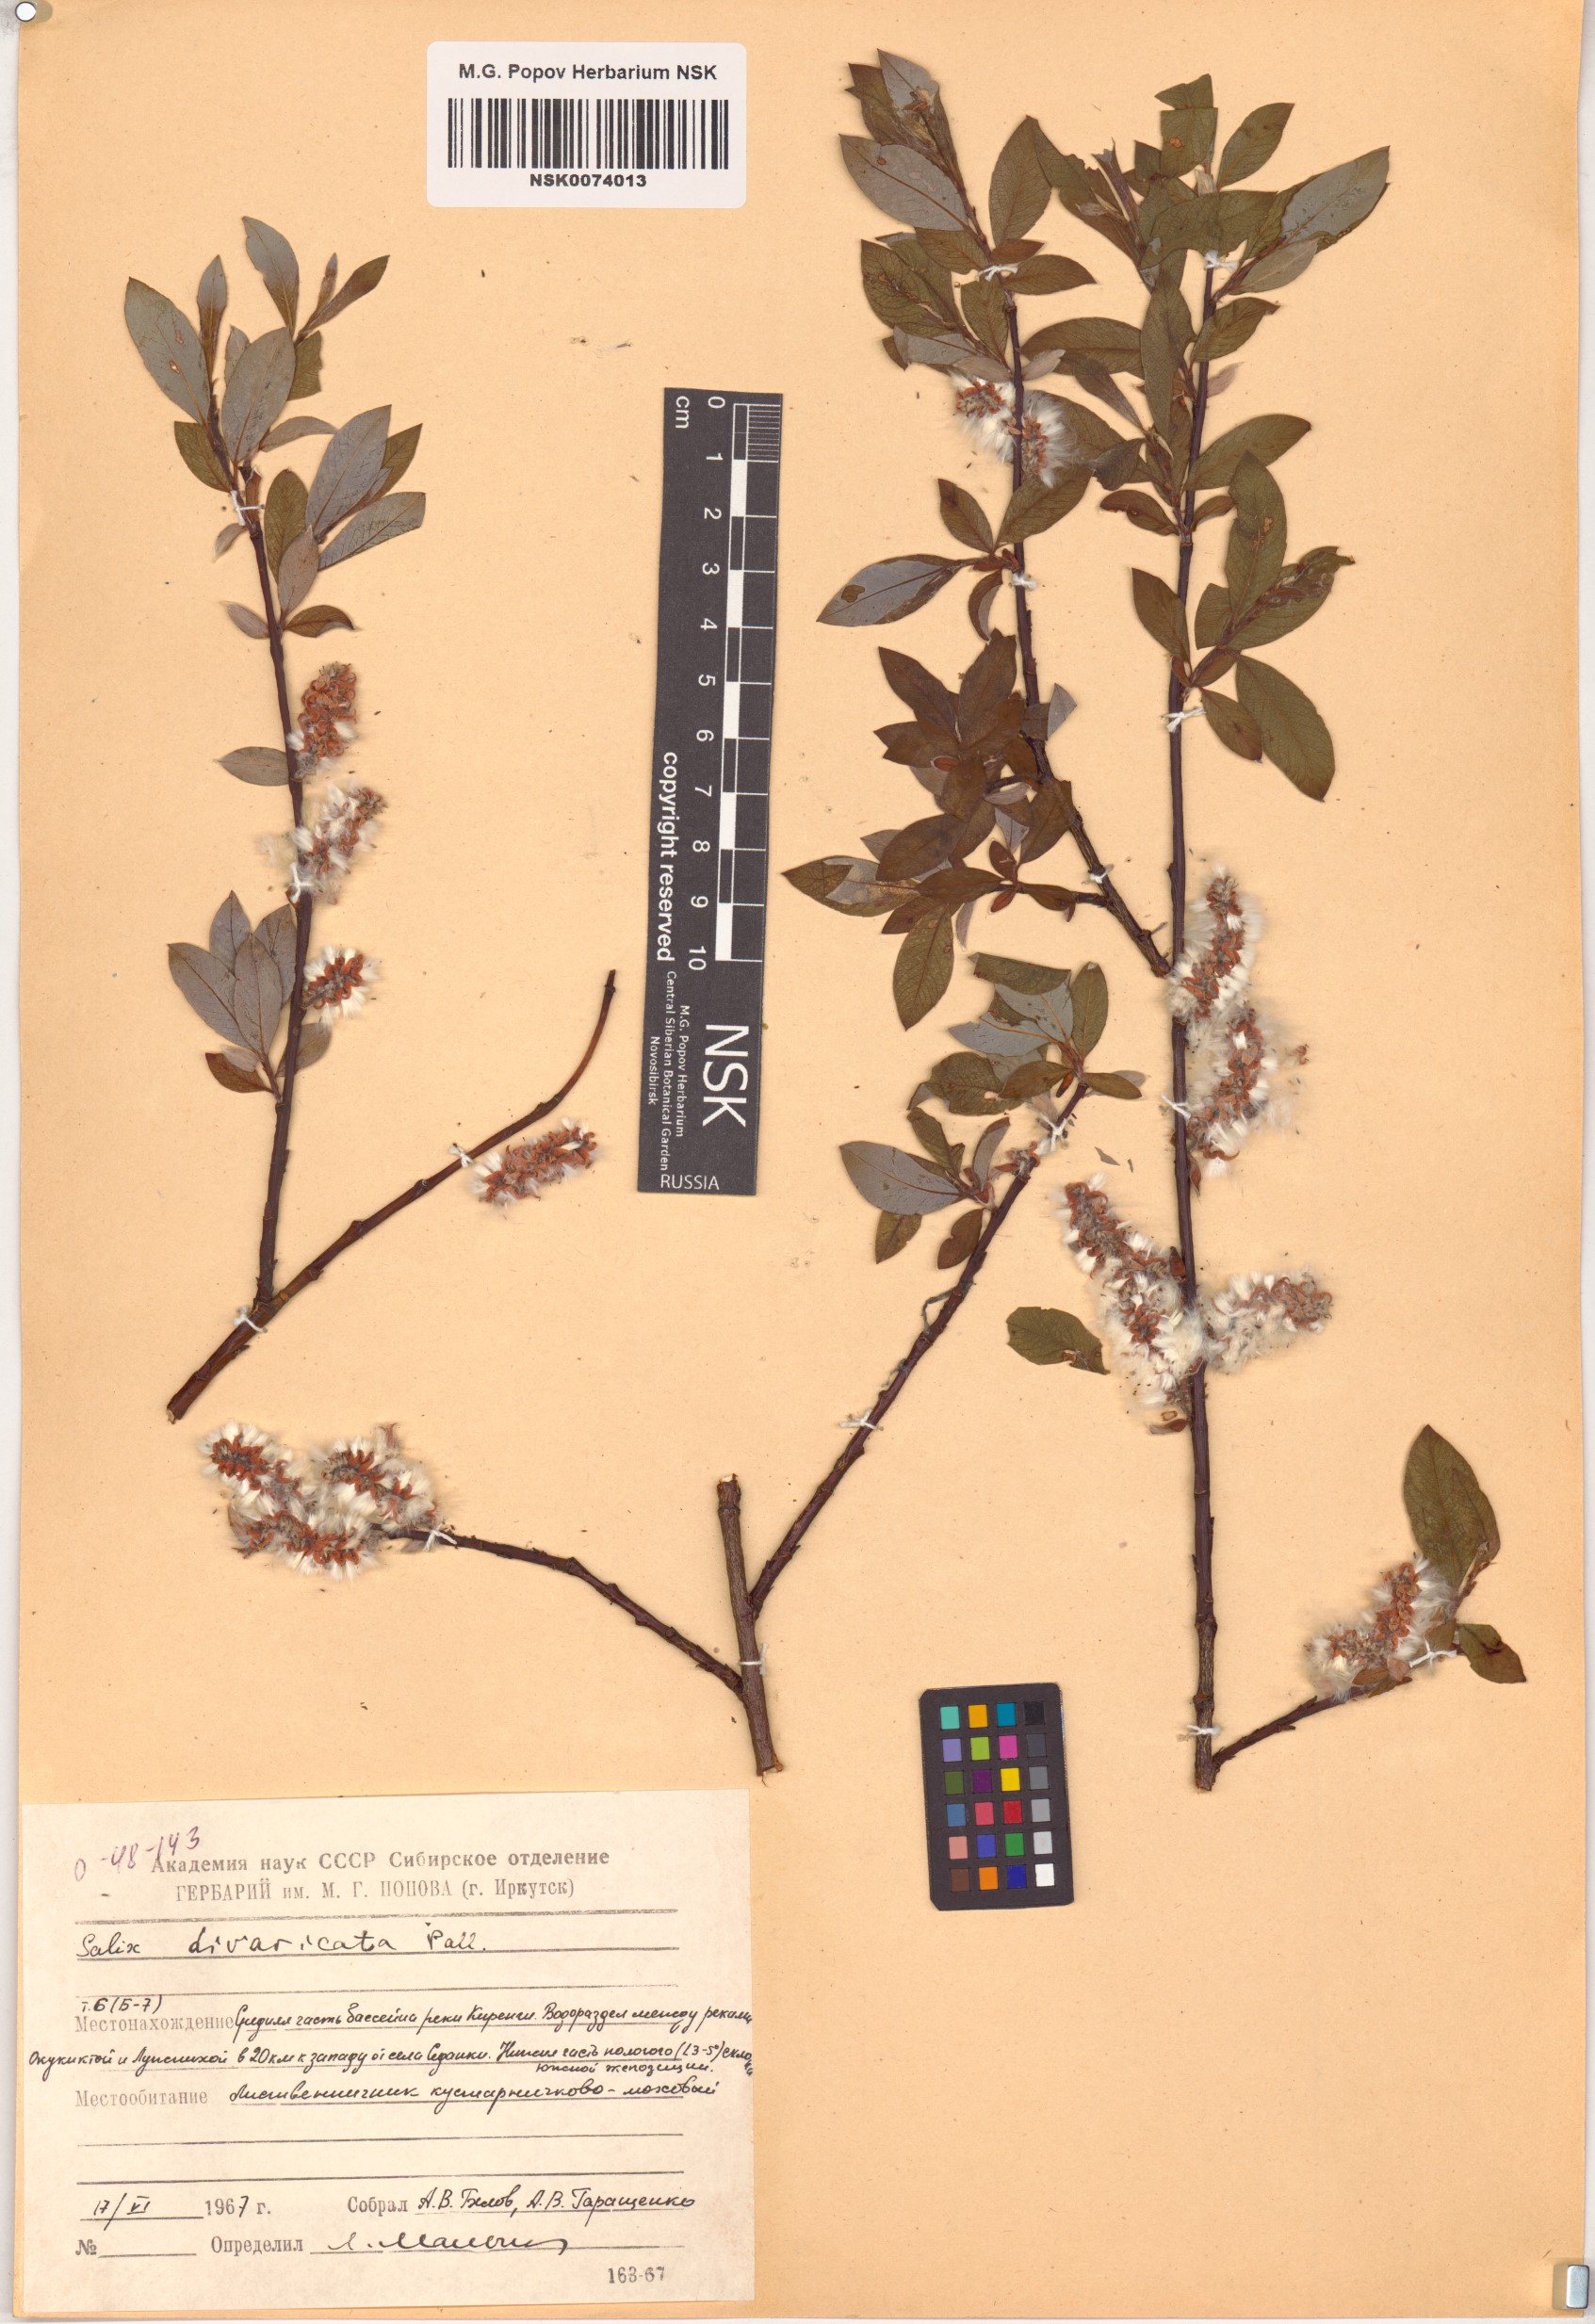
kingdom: Plantae
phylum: Tracheophyta
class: Magnoliopsida
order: Malpighiales
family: Salicaceae
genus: Salix
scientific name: Salix divaricata
